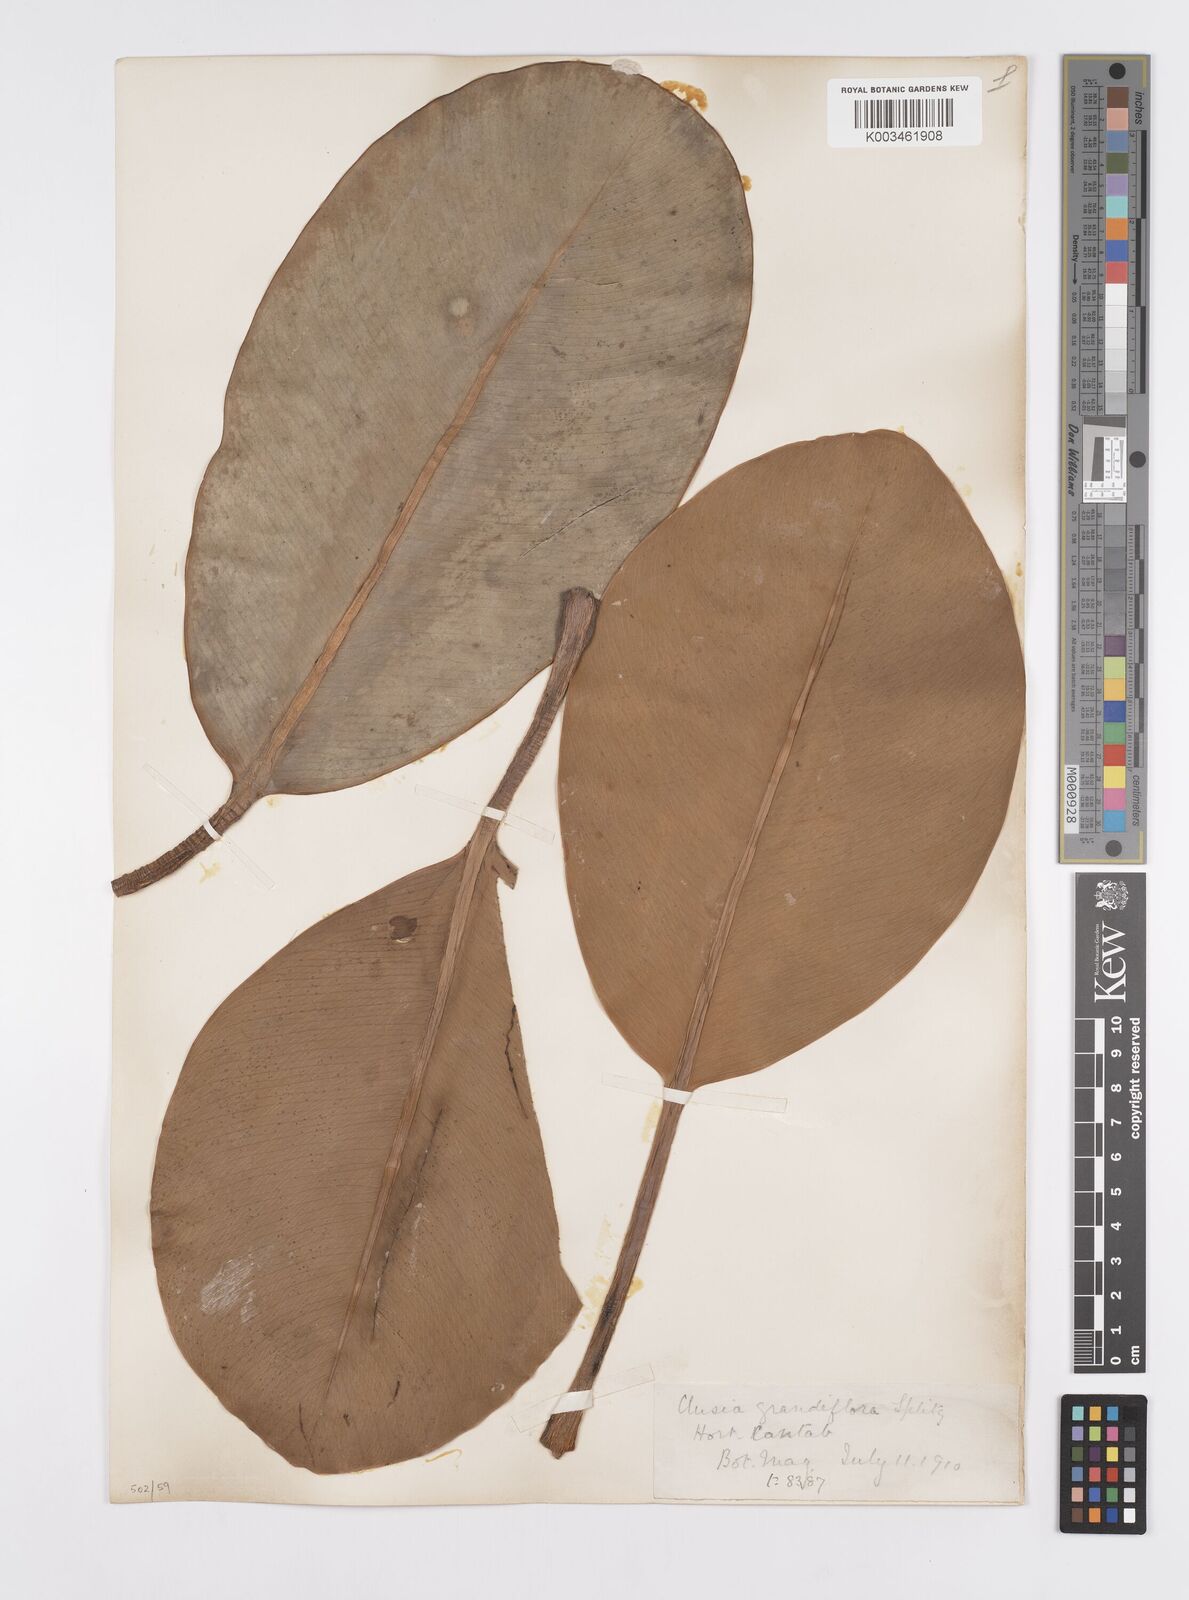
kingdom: Plantae
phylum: Tracheophyta
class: Magnoliopsida
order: Malpighiales
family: Clusiaceae
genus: Clusia
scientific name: Clusia grandiflora
